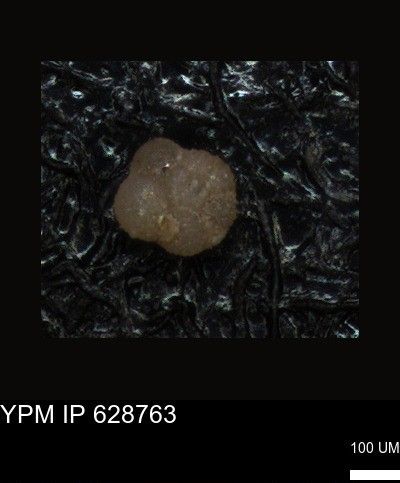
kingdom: Chromista
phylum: Foraminifera
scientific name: Foraminifera
